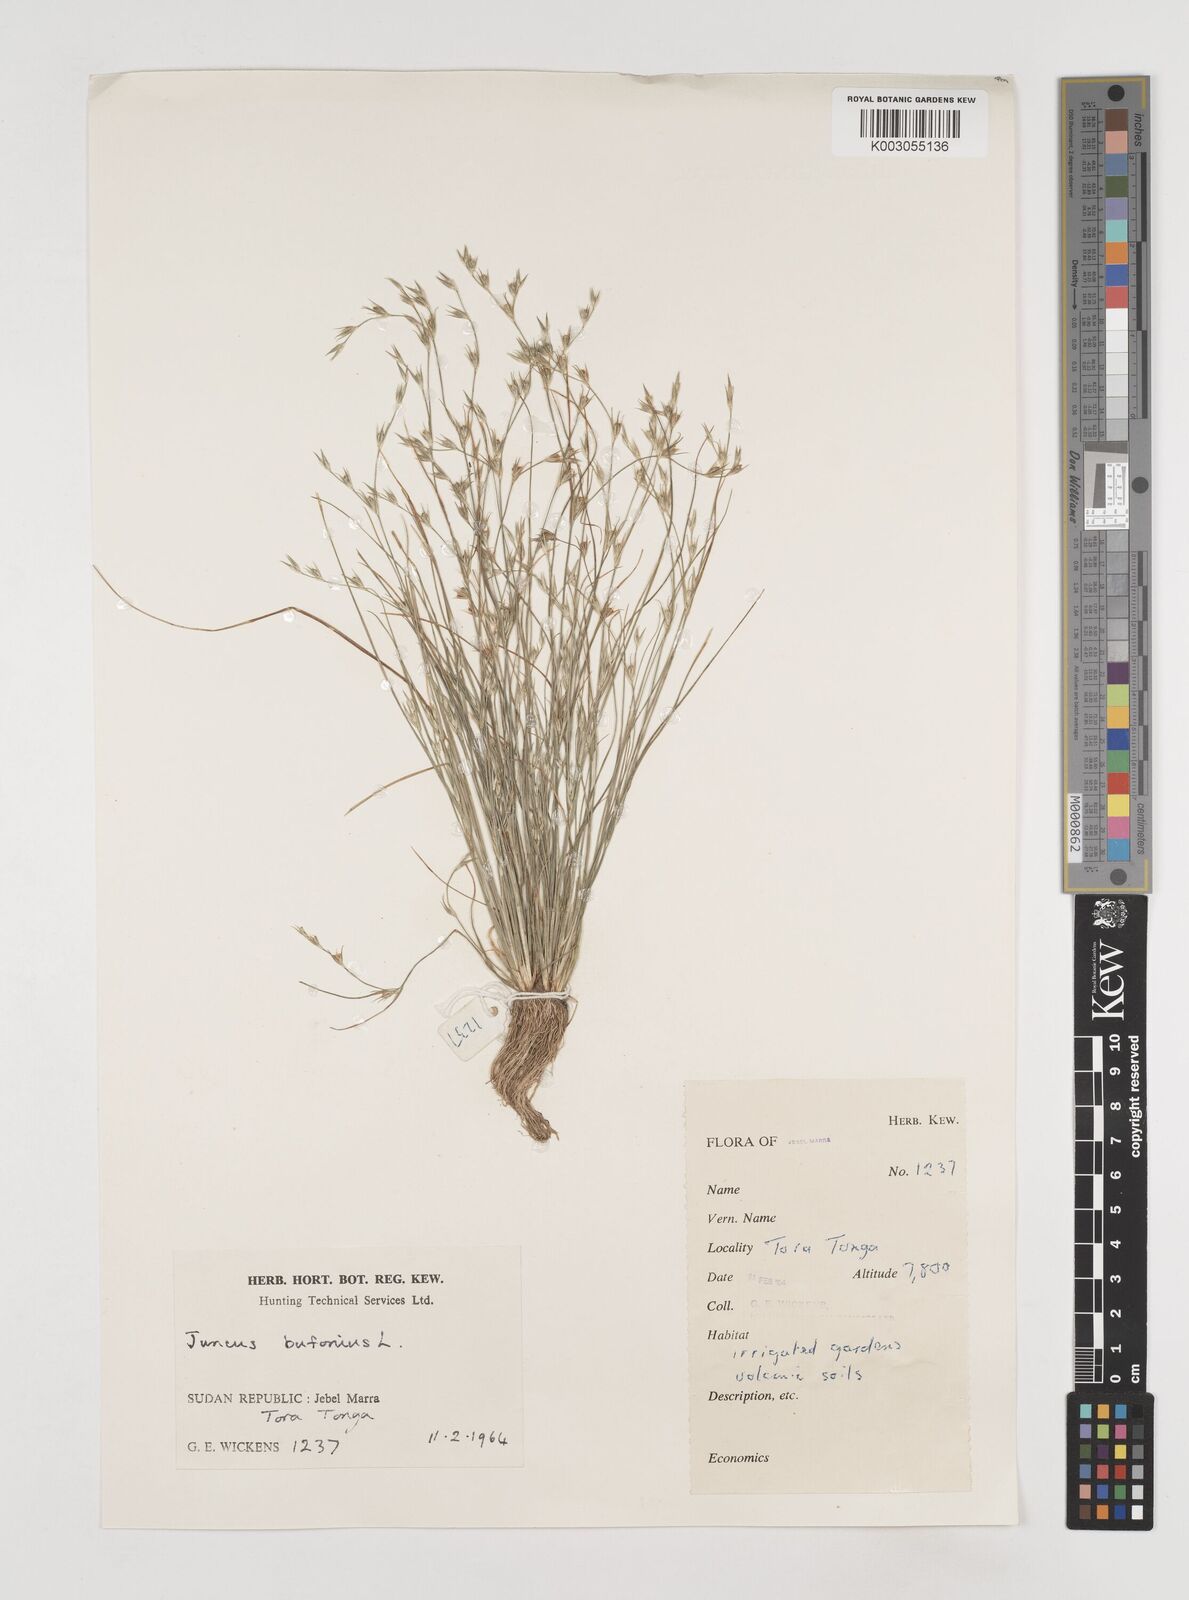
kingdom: Plantae
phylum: Tracheophyta
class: Liliopsida
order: Poales
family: Juncaceae
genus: Juncus
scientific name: Juncus bufonius
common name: Toad rush
